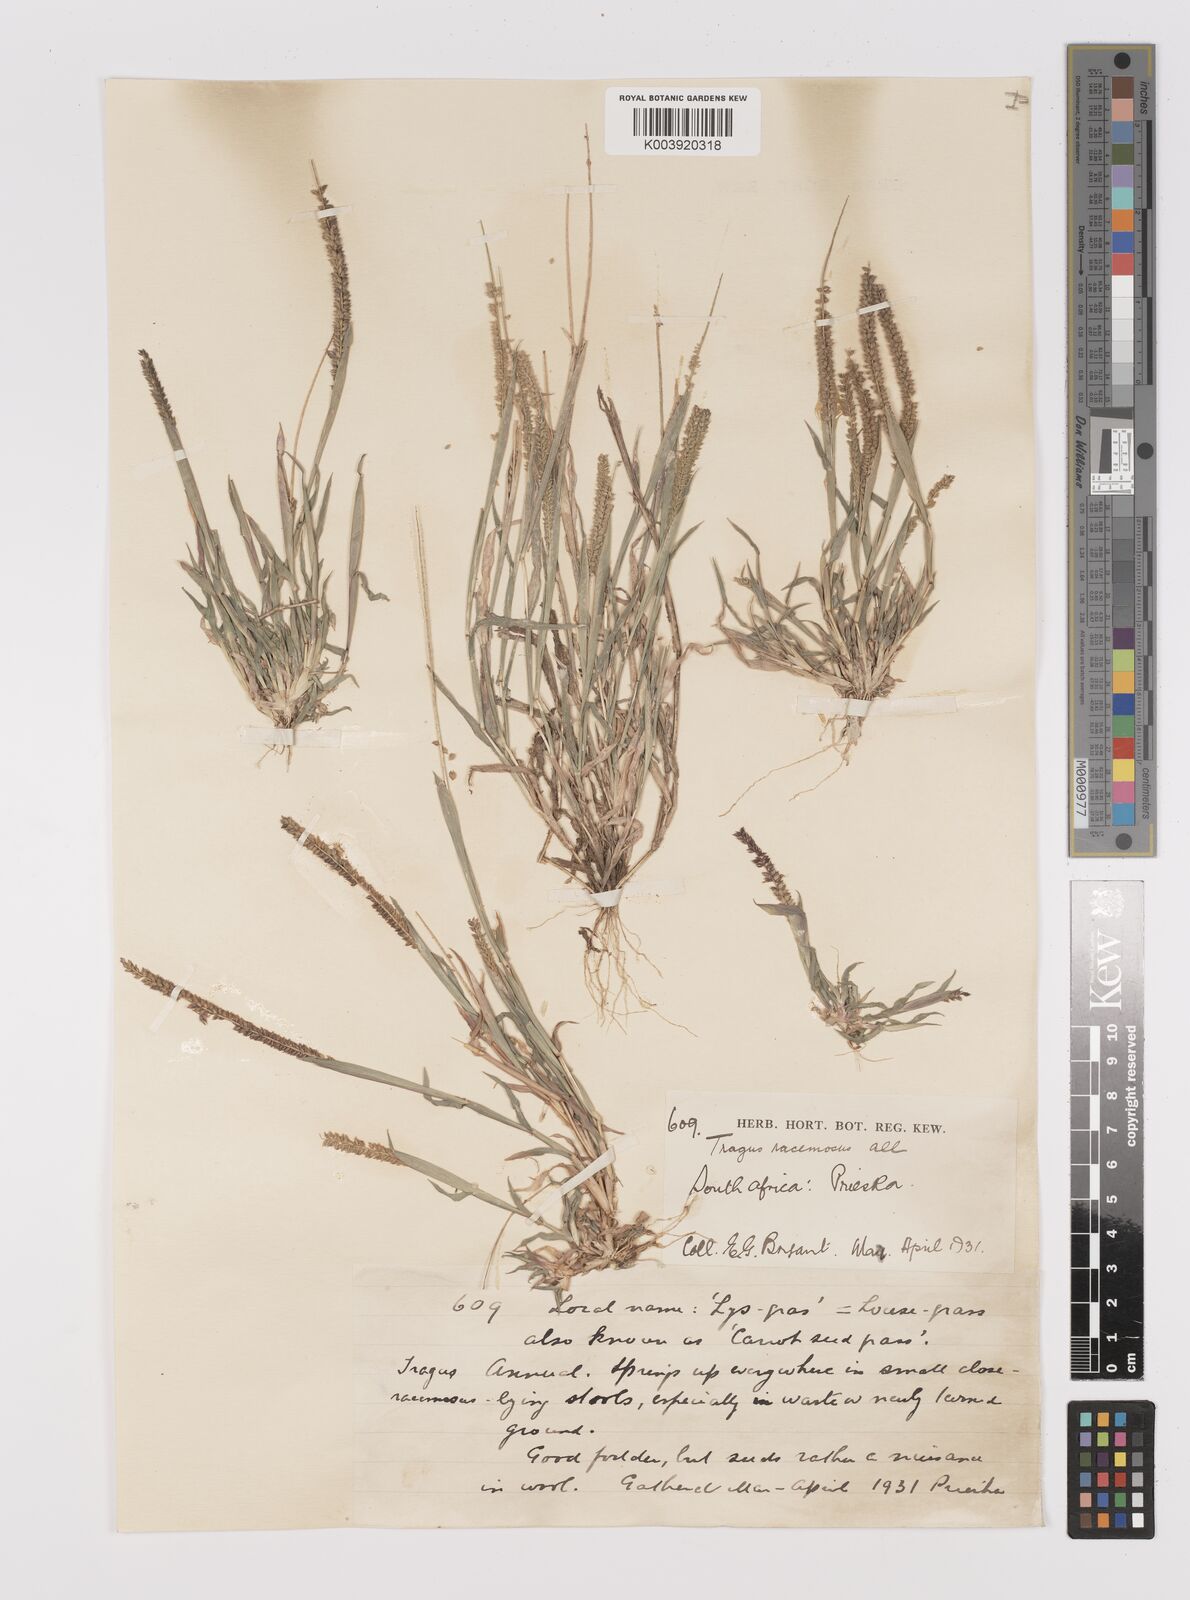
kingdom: Plantae
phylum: Tracheophyta
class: Liliopsida
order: Poales
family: Poaceae
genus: Tragus
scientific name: Tragus berteronianus
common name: African bur-grass
